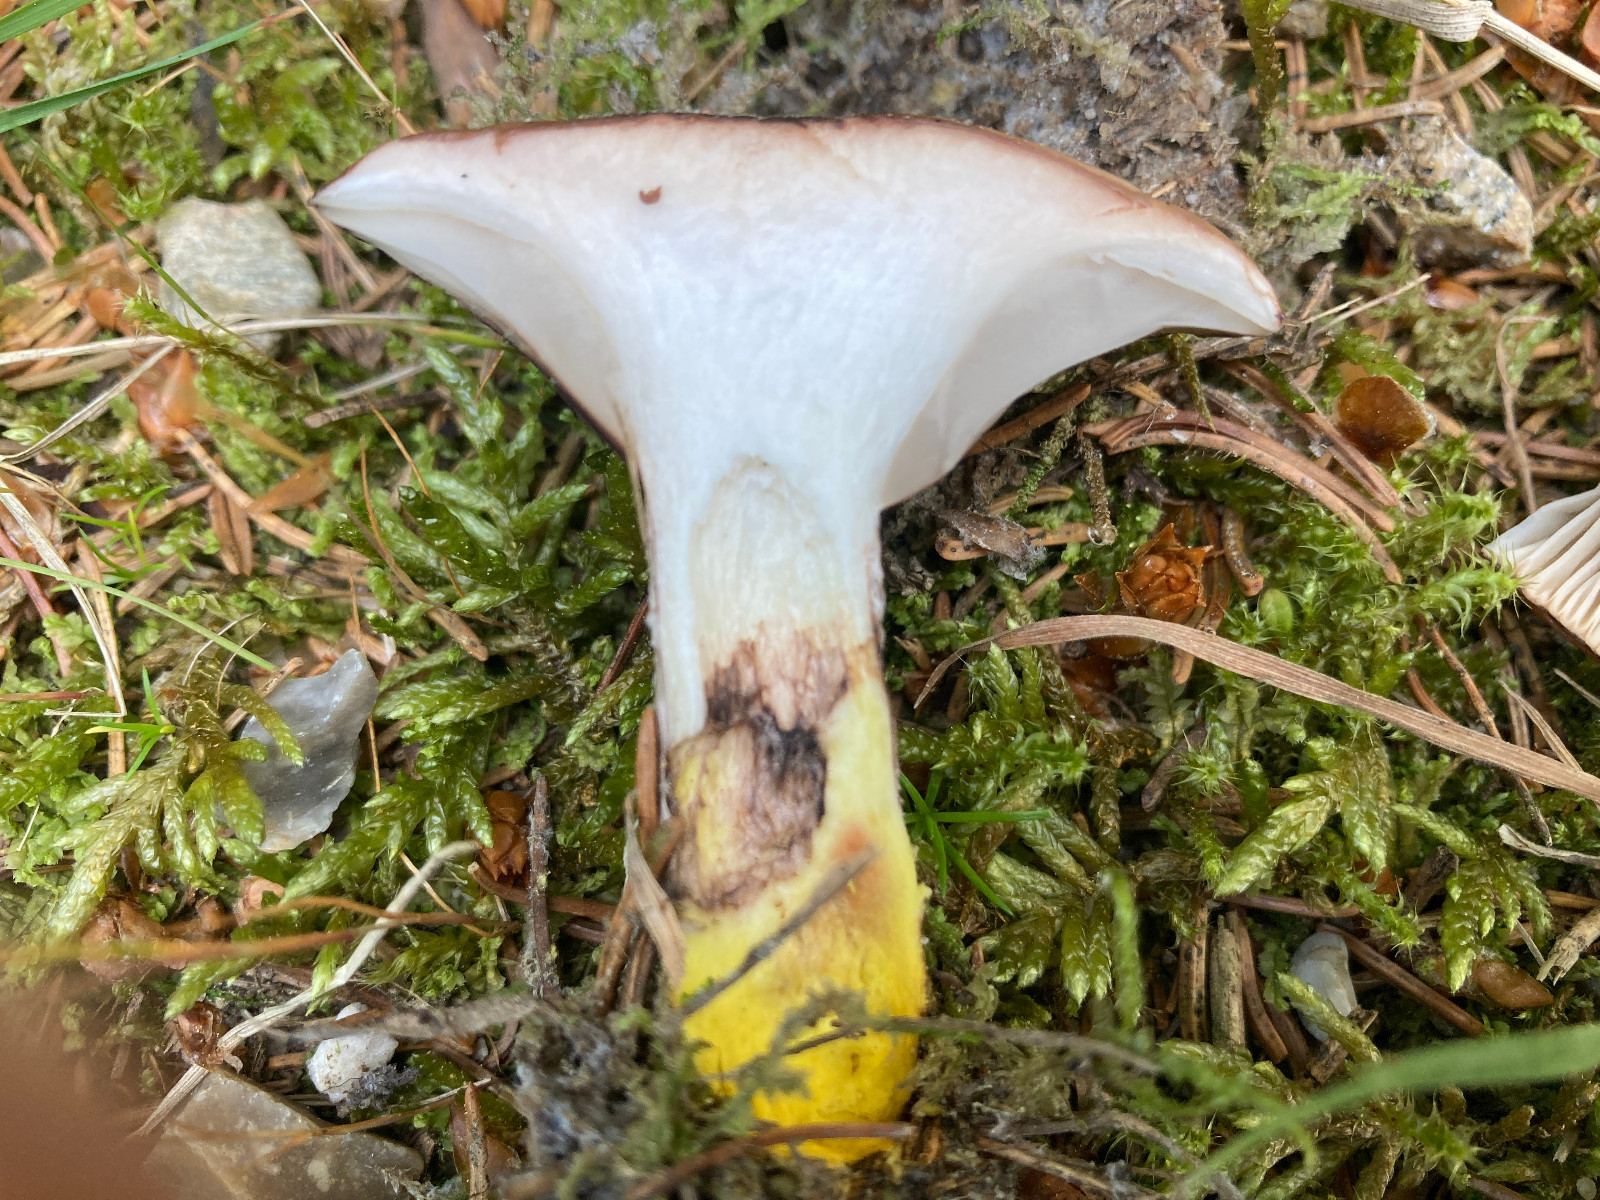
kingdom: Fungi
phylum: Basidiomycota
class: Agaricomycetes
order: Boletales
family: Gomphidiaceae
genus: Gomphidius
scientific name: Gomphidius glutinosus
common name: grå slimslør
